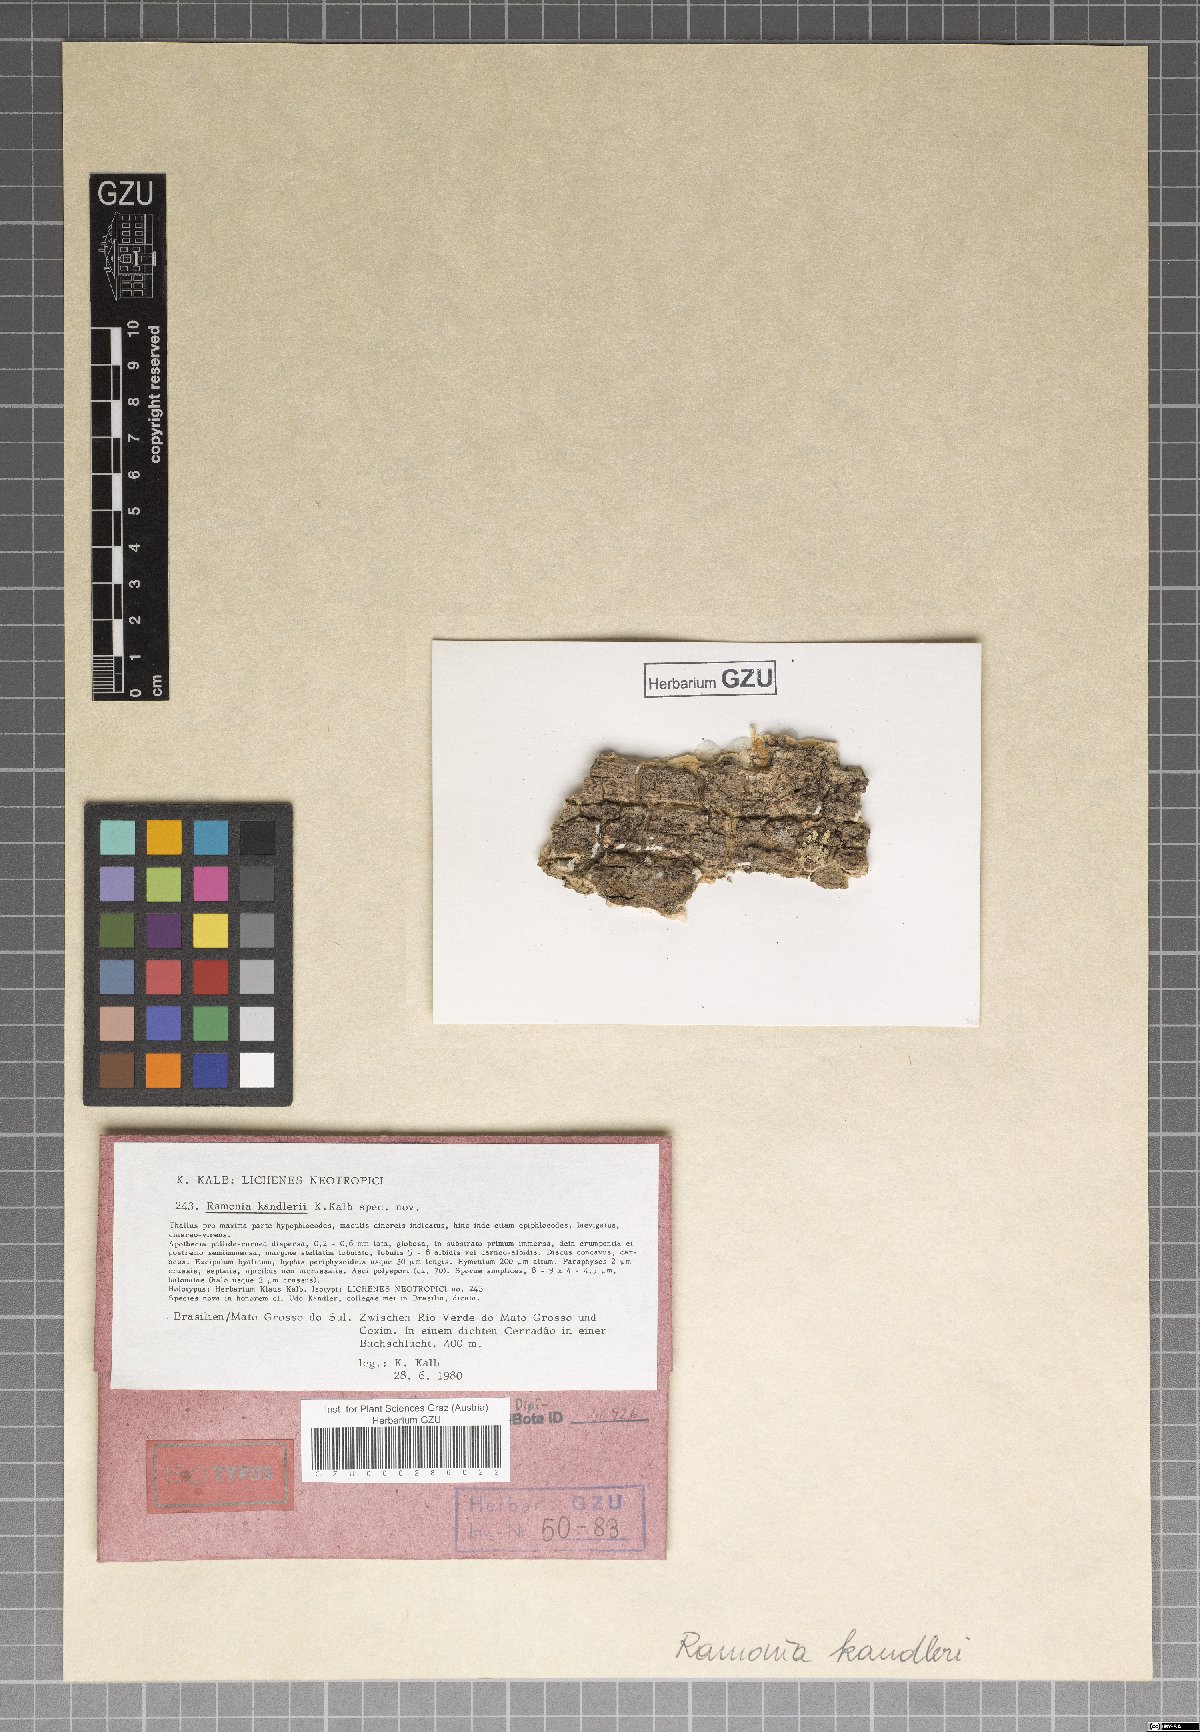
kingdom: Fungi
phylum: Ascomycota
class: Lecanoromycetes
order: Gyalectales
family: Gyalectaceae
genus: Ramonia
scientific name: Ramonia kandlerii
